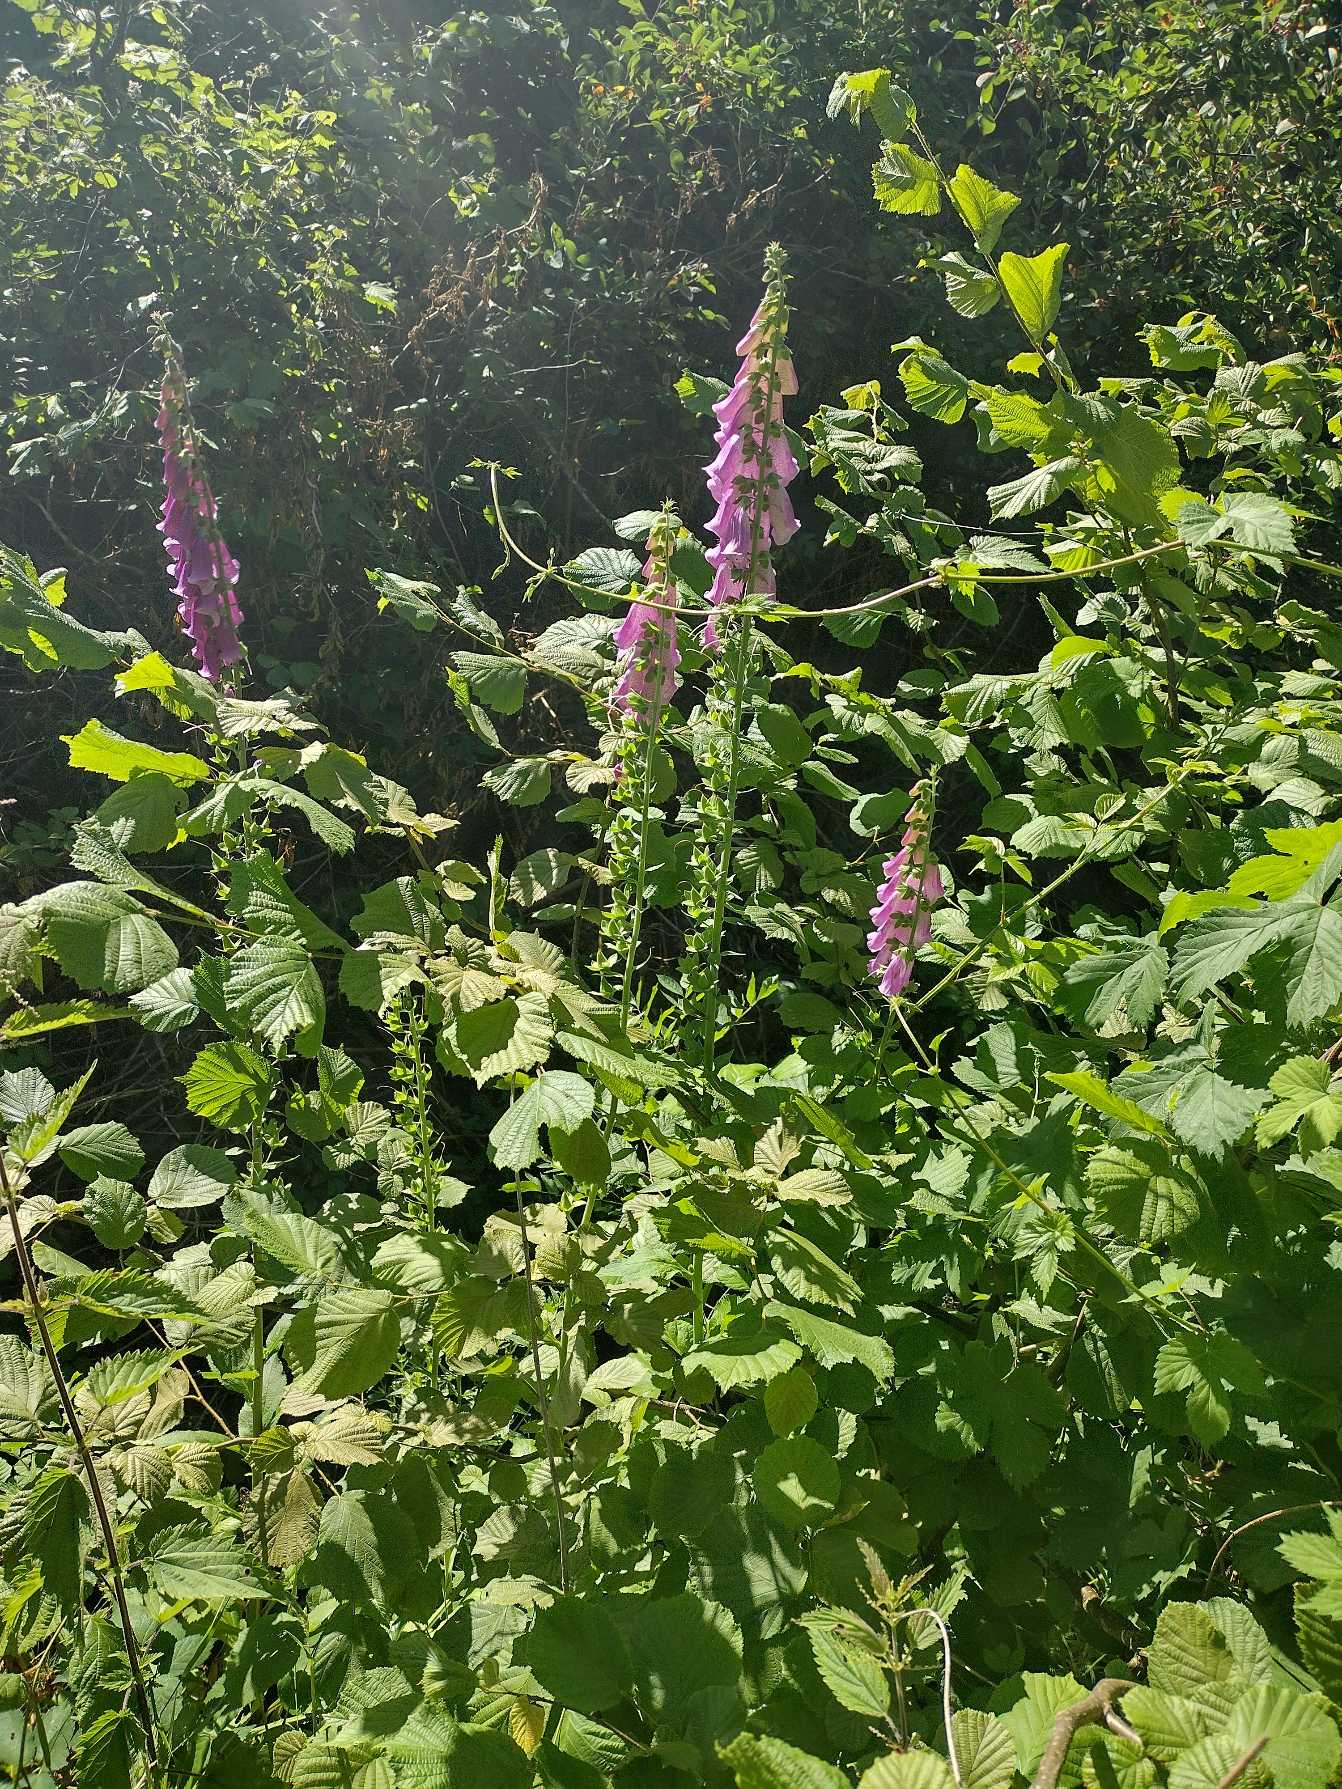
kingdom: Plantae
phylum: Tracheophyta
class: Magnoliopsida
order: Lamiales
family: Plantaginaceae
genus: Digitalis
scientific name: Digitalis purpurea
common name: Almindelig fingerbøl
